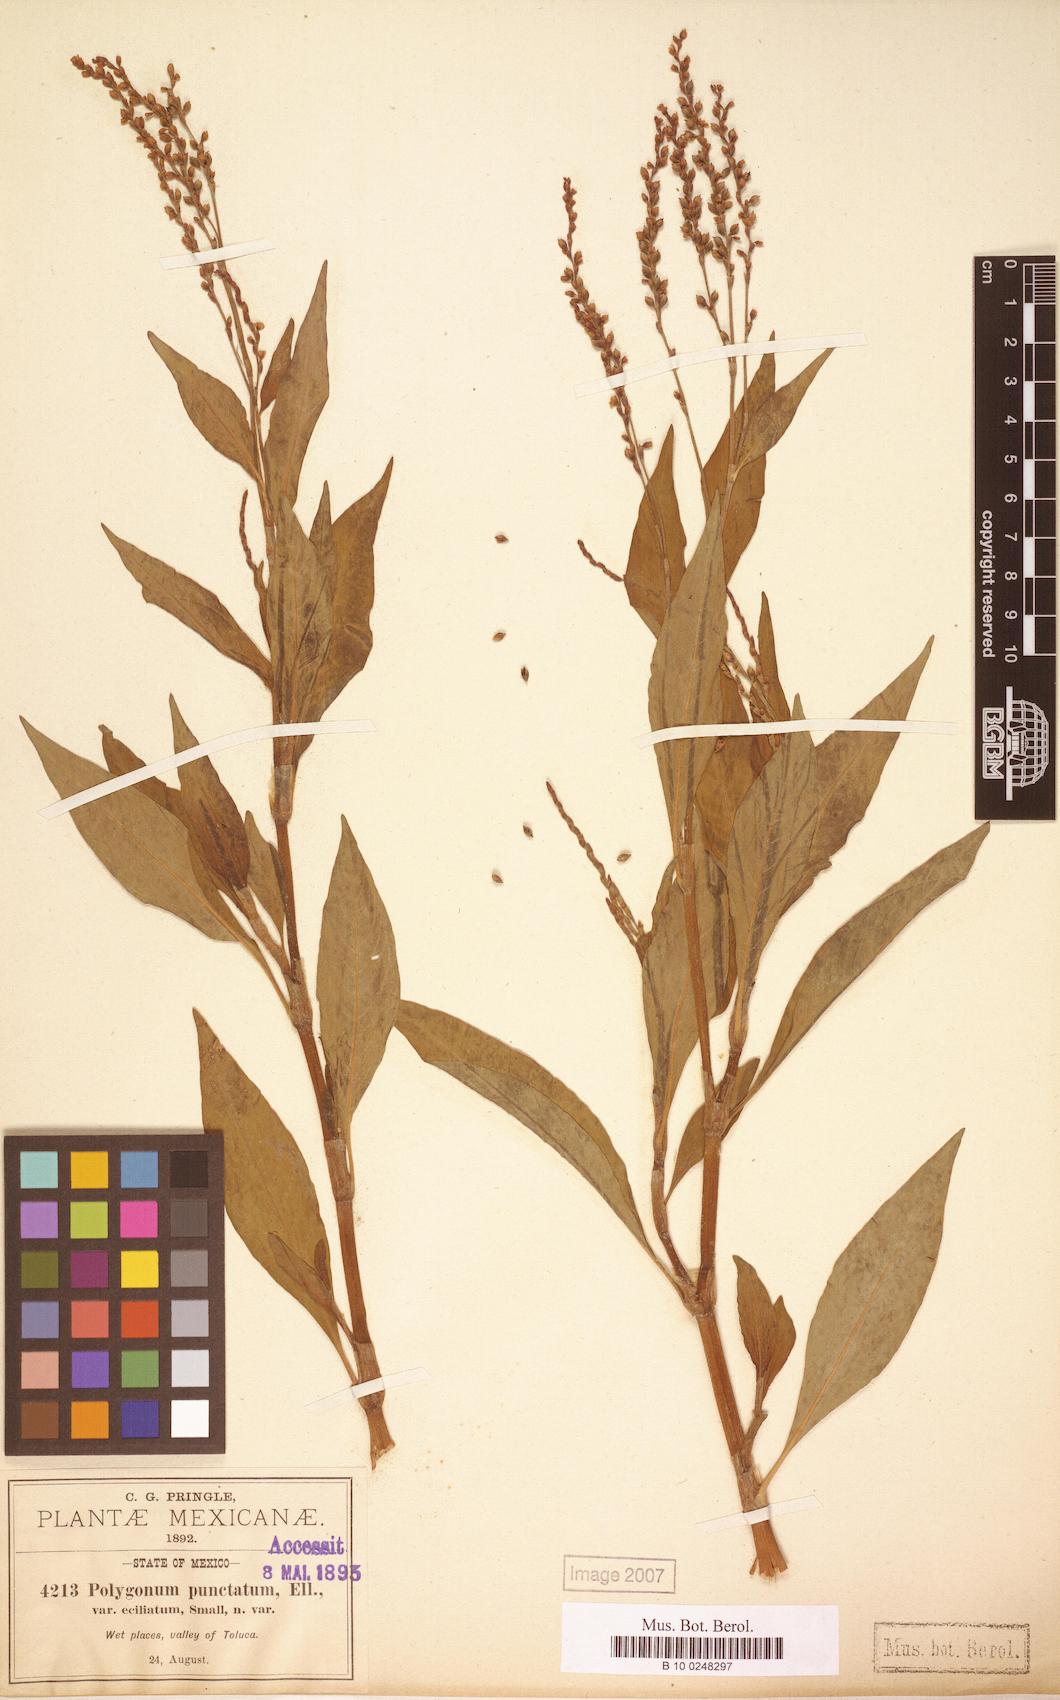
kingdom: Plantae
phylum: Tracheophyta
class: Magnoliopsida
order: Caryophyllales
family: Polygonaceae
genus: Persicaria
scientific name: Persicaria punctata
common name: Dotted smartweed
